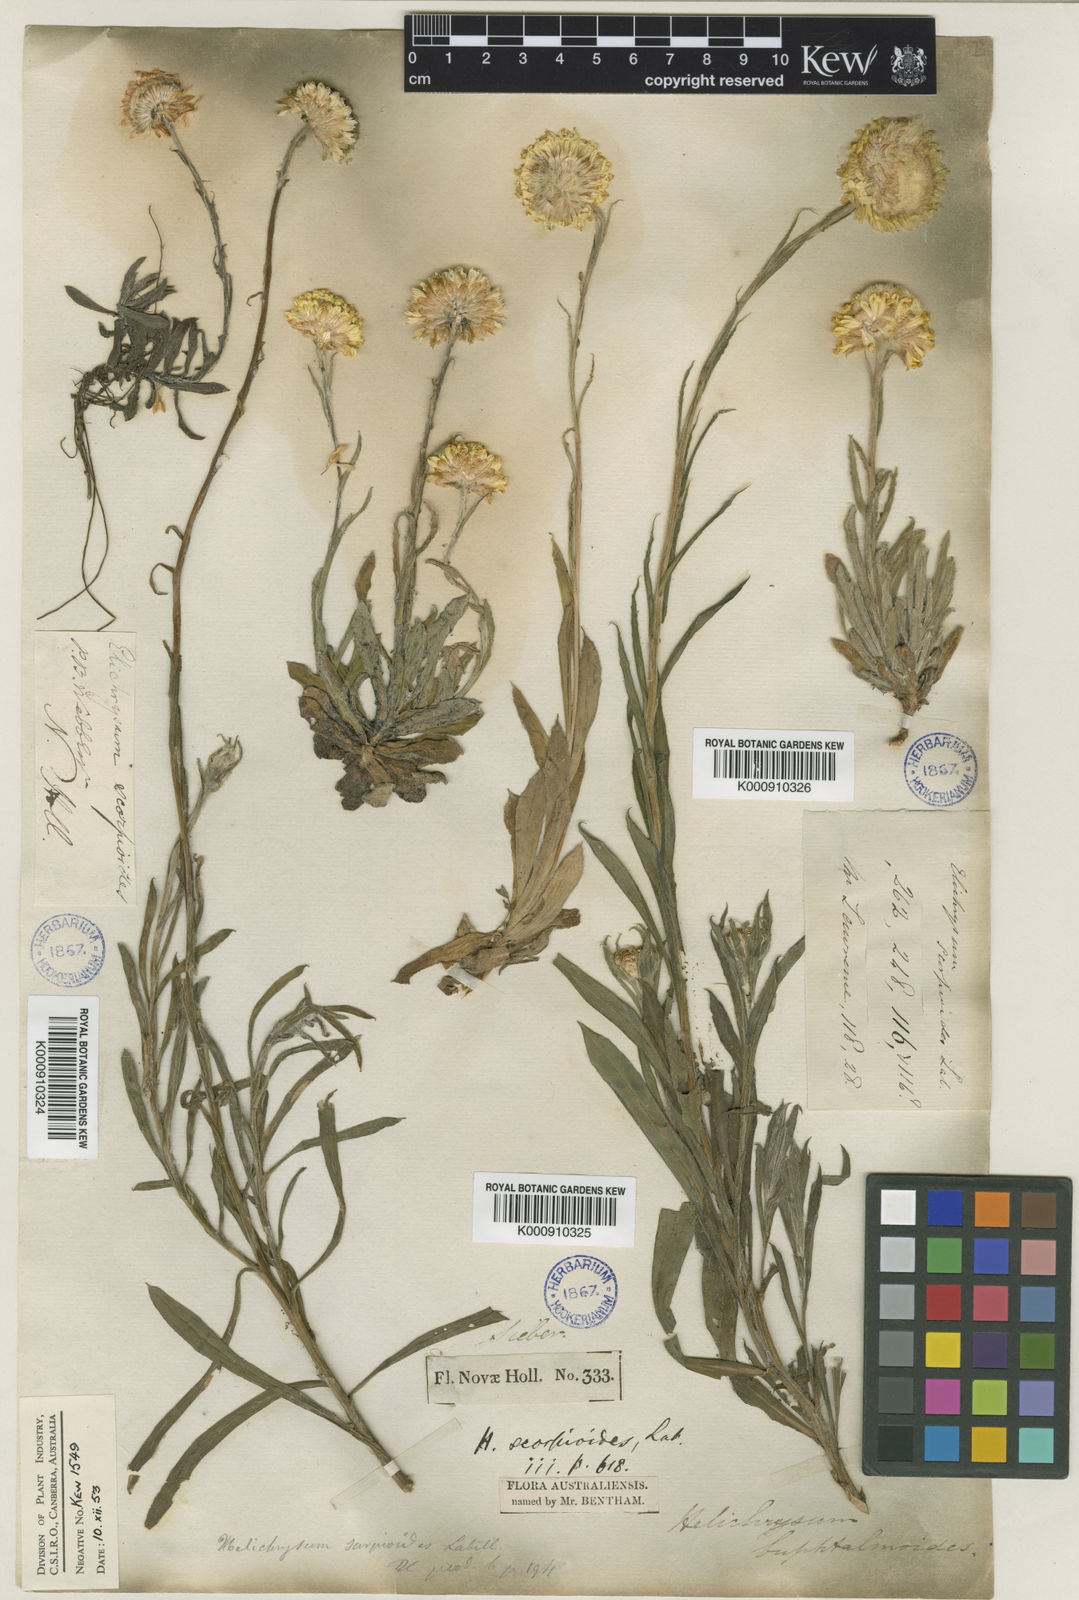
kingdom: Plantae
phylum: Tracheophyta
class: Magnoliopsida
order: Asterales
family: Asteraceae
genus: Coronidium
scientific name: Coronidium scorpioides
